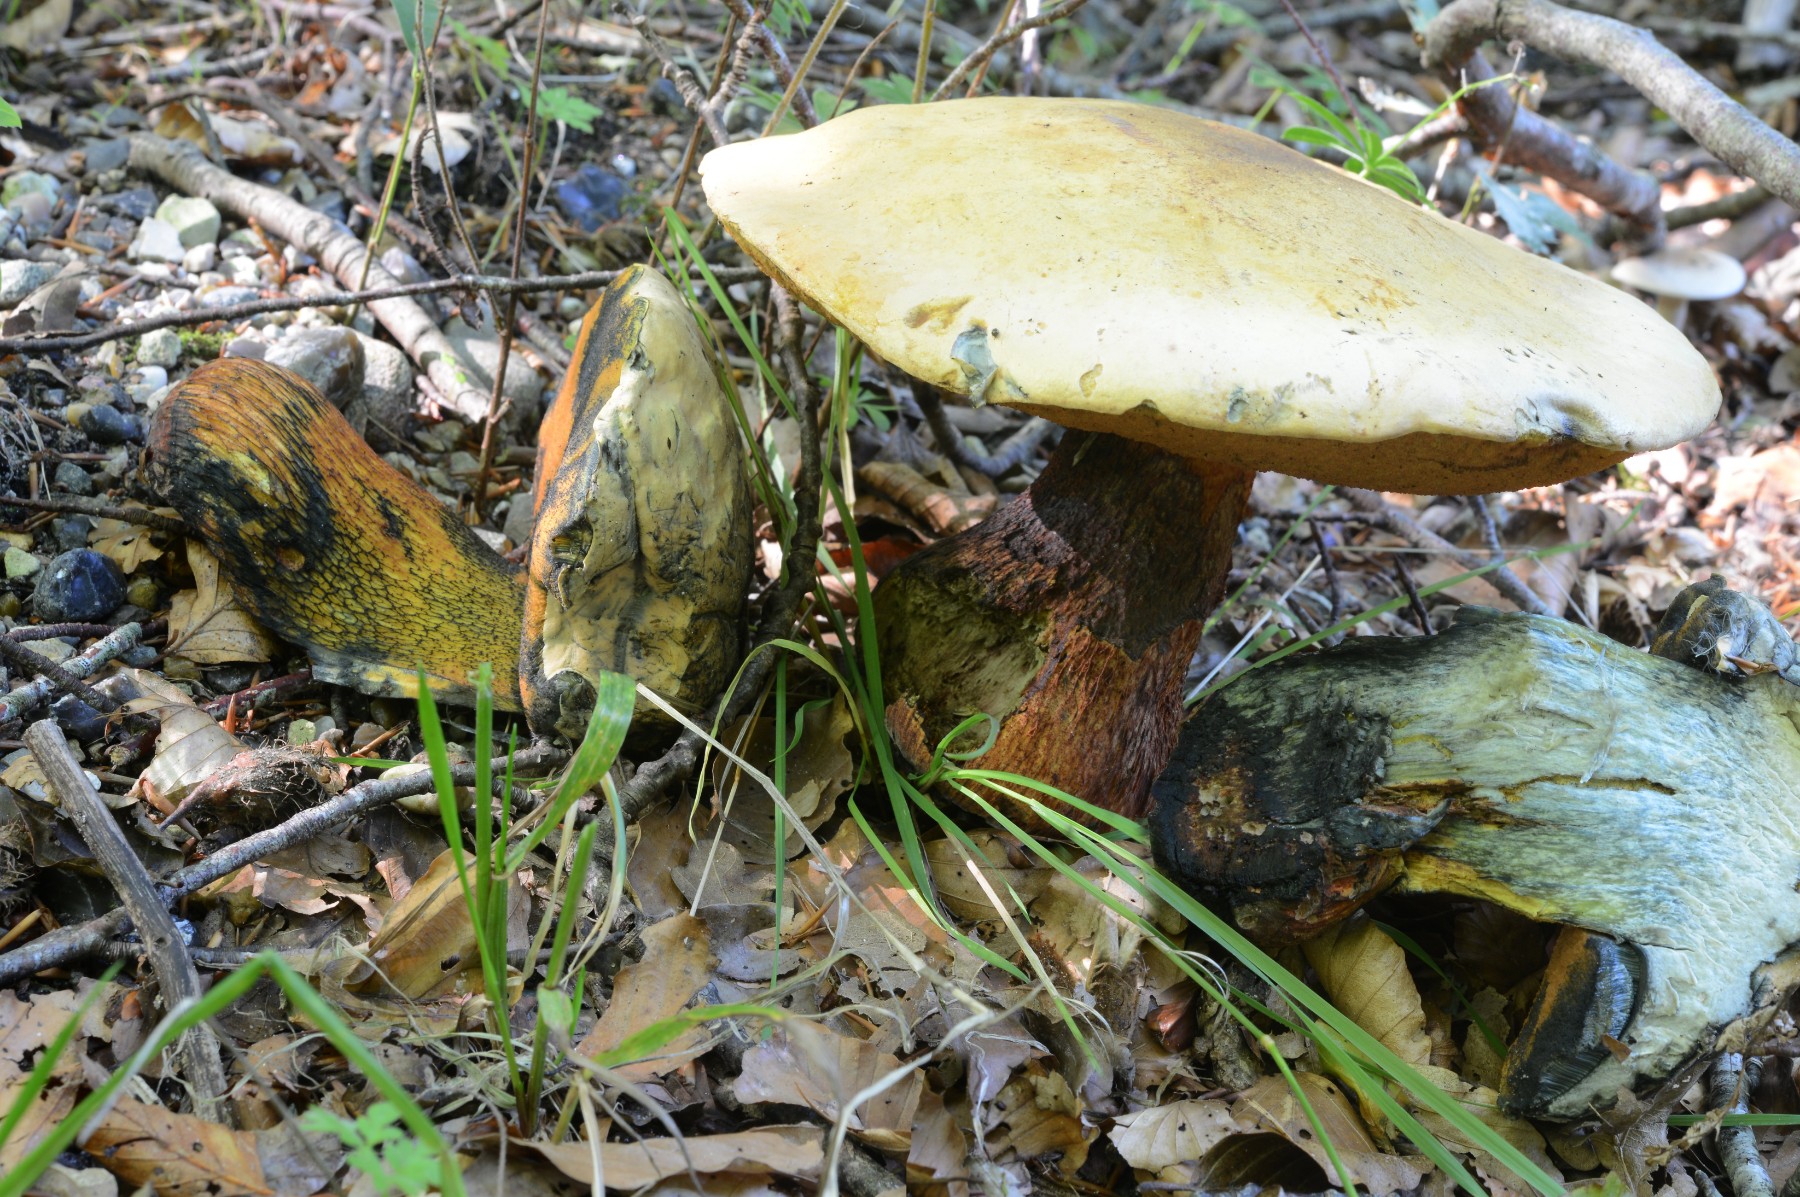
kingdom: Fungi
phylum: Basidiomycota
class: Agaricomycetes
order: Boletales
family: Boletaceae
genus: Suillellus
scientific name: Suillellus luridus
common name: netstokket indigorørhat
